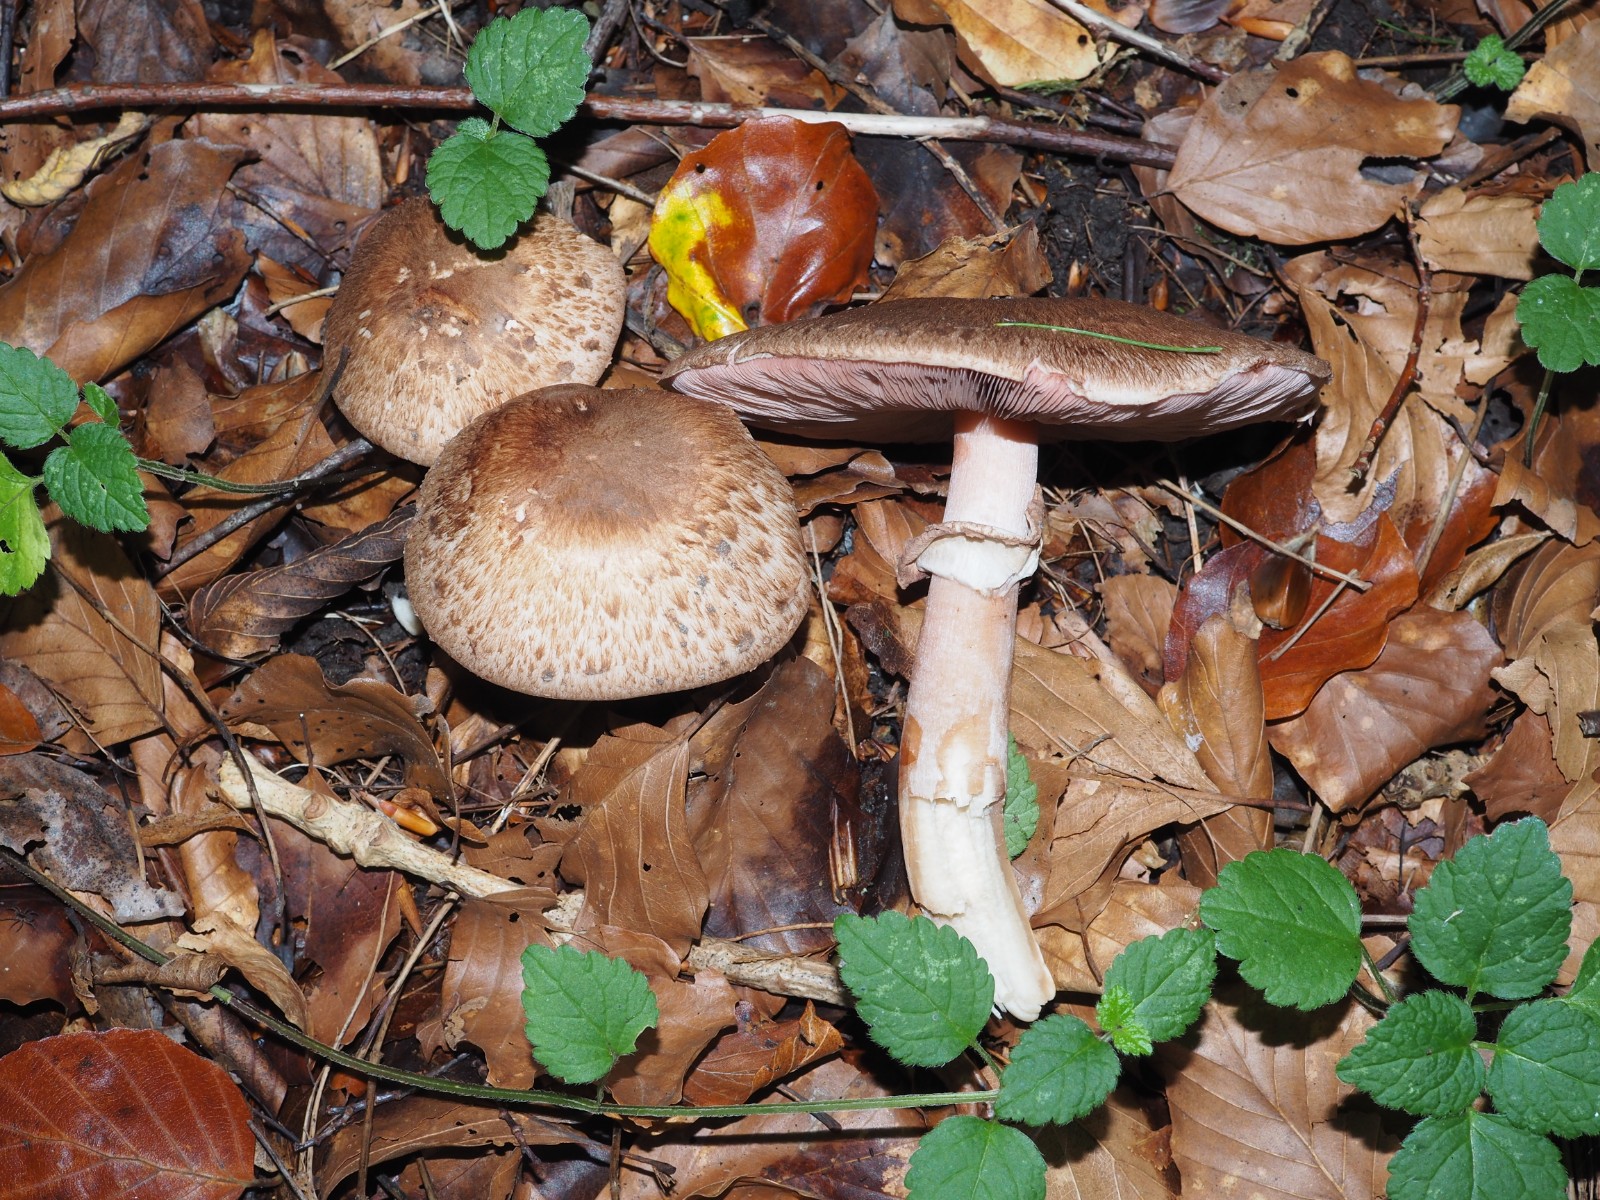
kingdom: Fungi
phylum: Basidiomycota
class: Agaricomycetes
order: Agaricales
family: Agaricaceae
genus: Agaricus
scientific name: Agaricus
